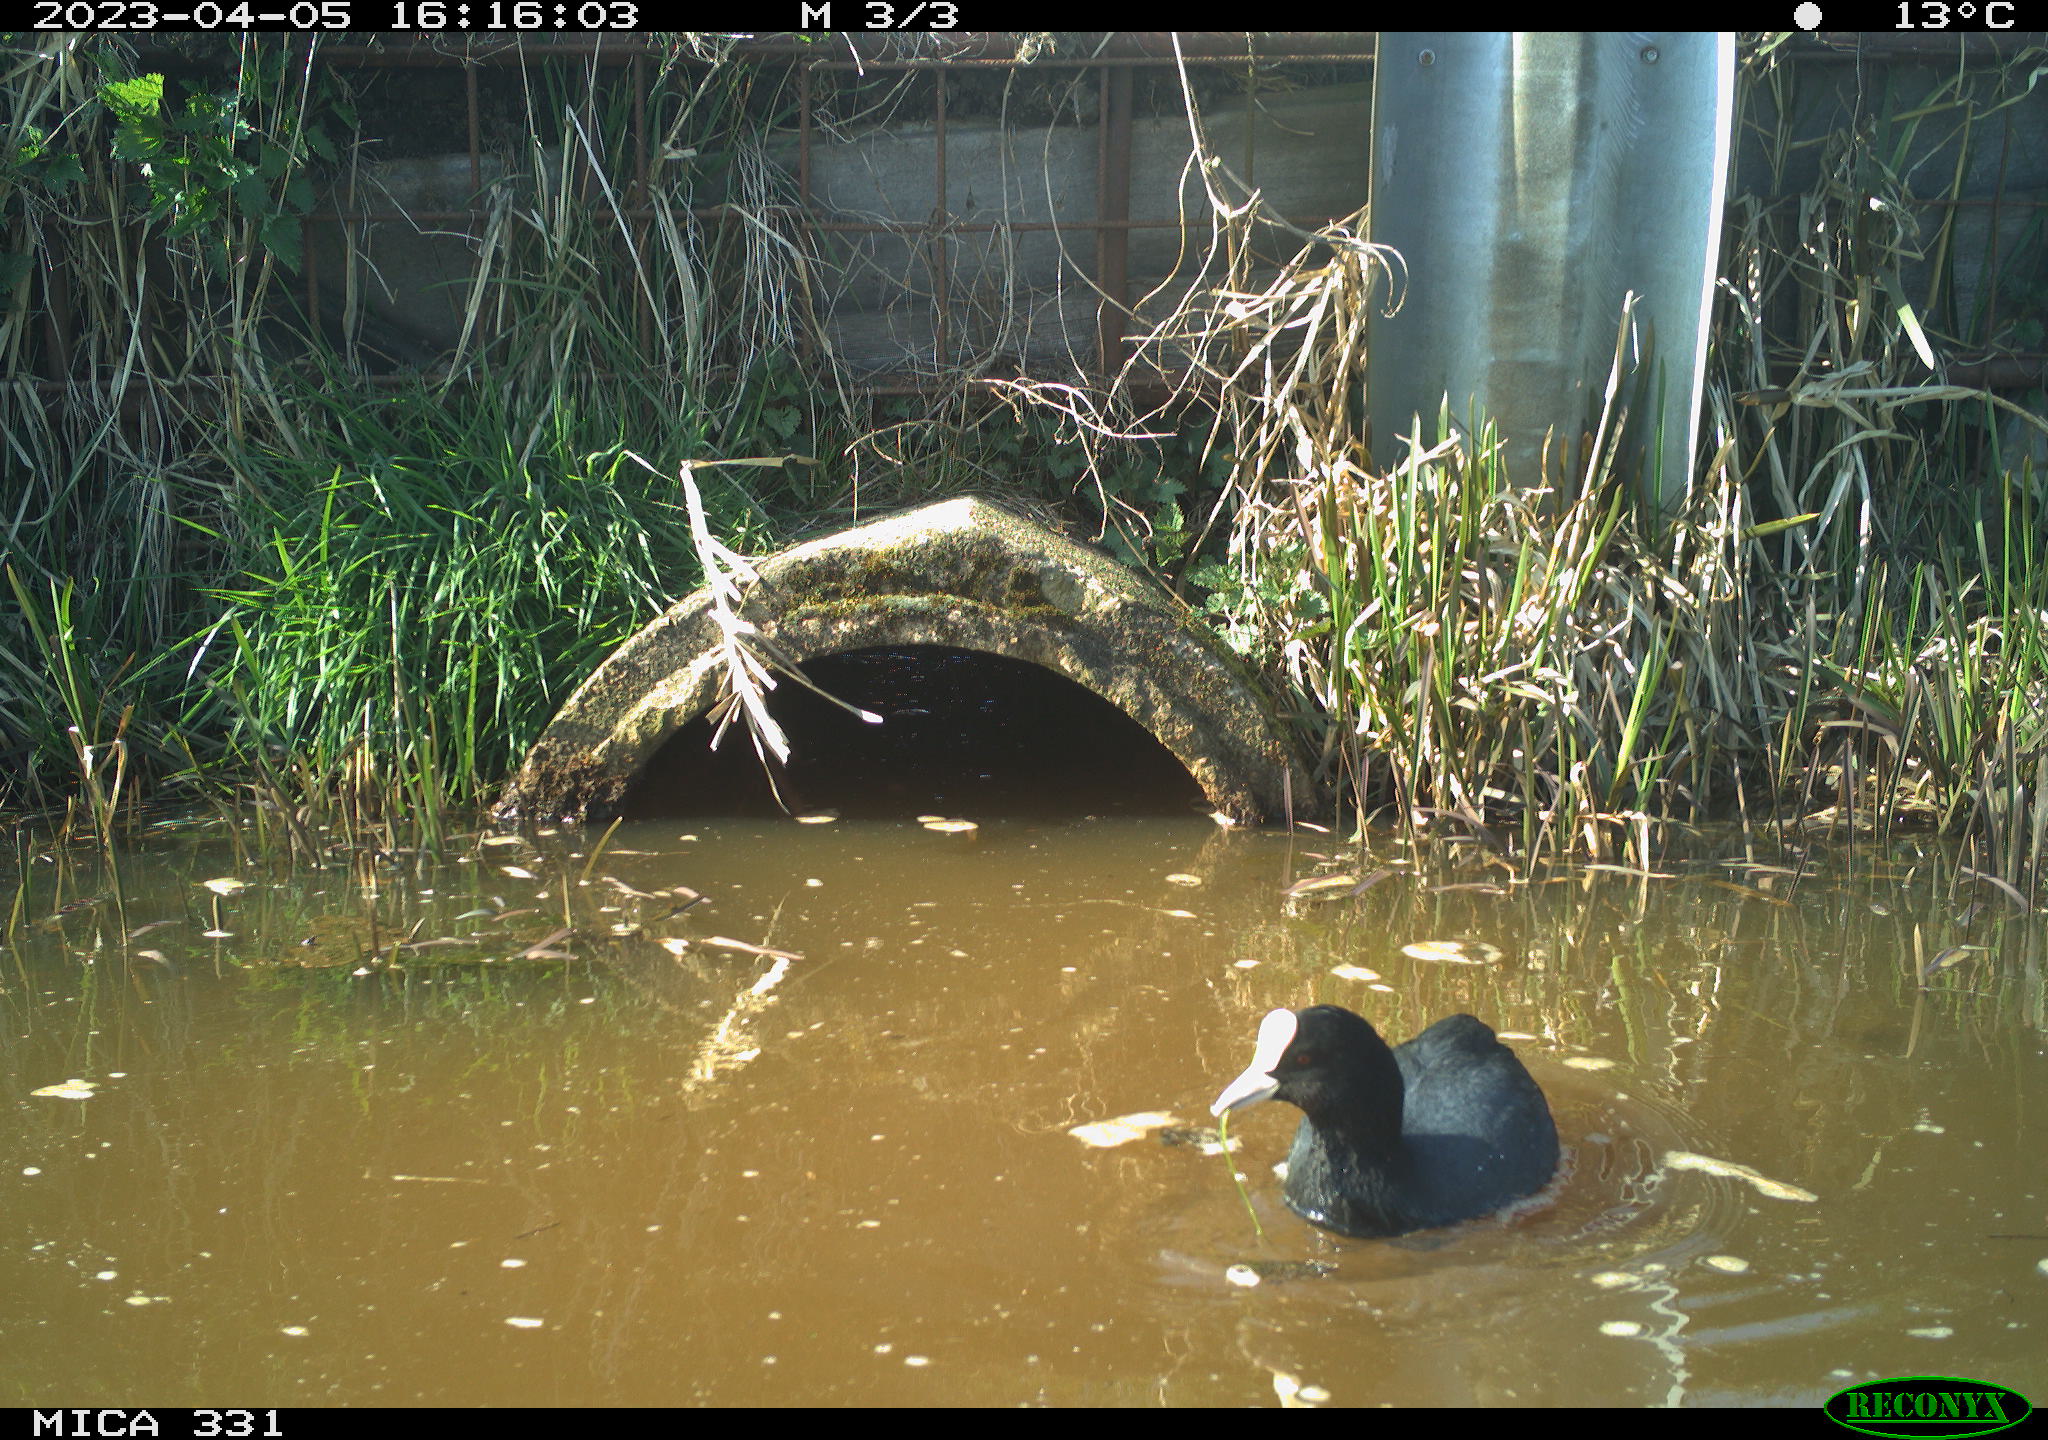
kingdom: Animalia
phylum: Chordata
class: Aves
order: Gruiformes
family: Rallidae
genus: Fulica
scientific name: Fulica atra
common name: Eurasian coot
